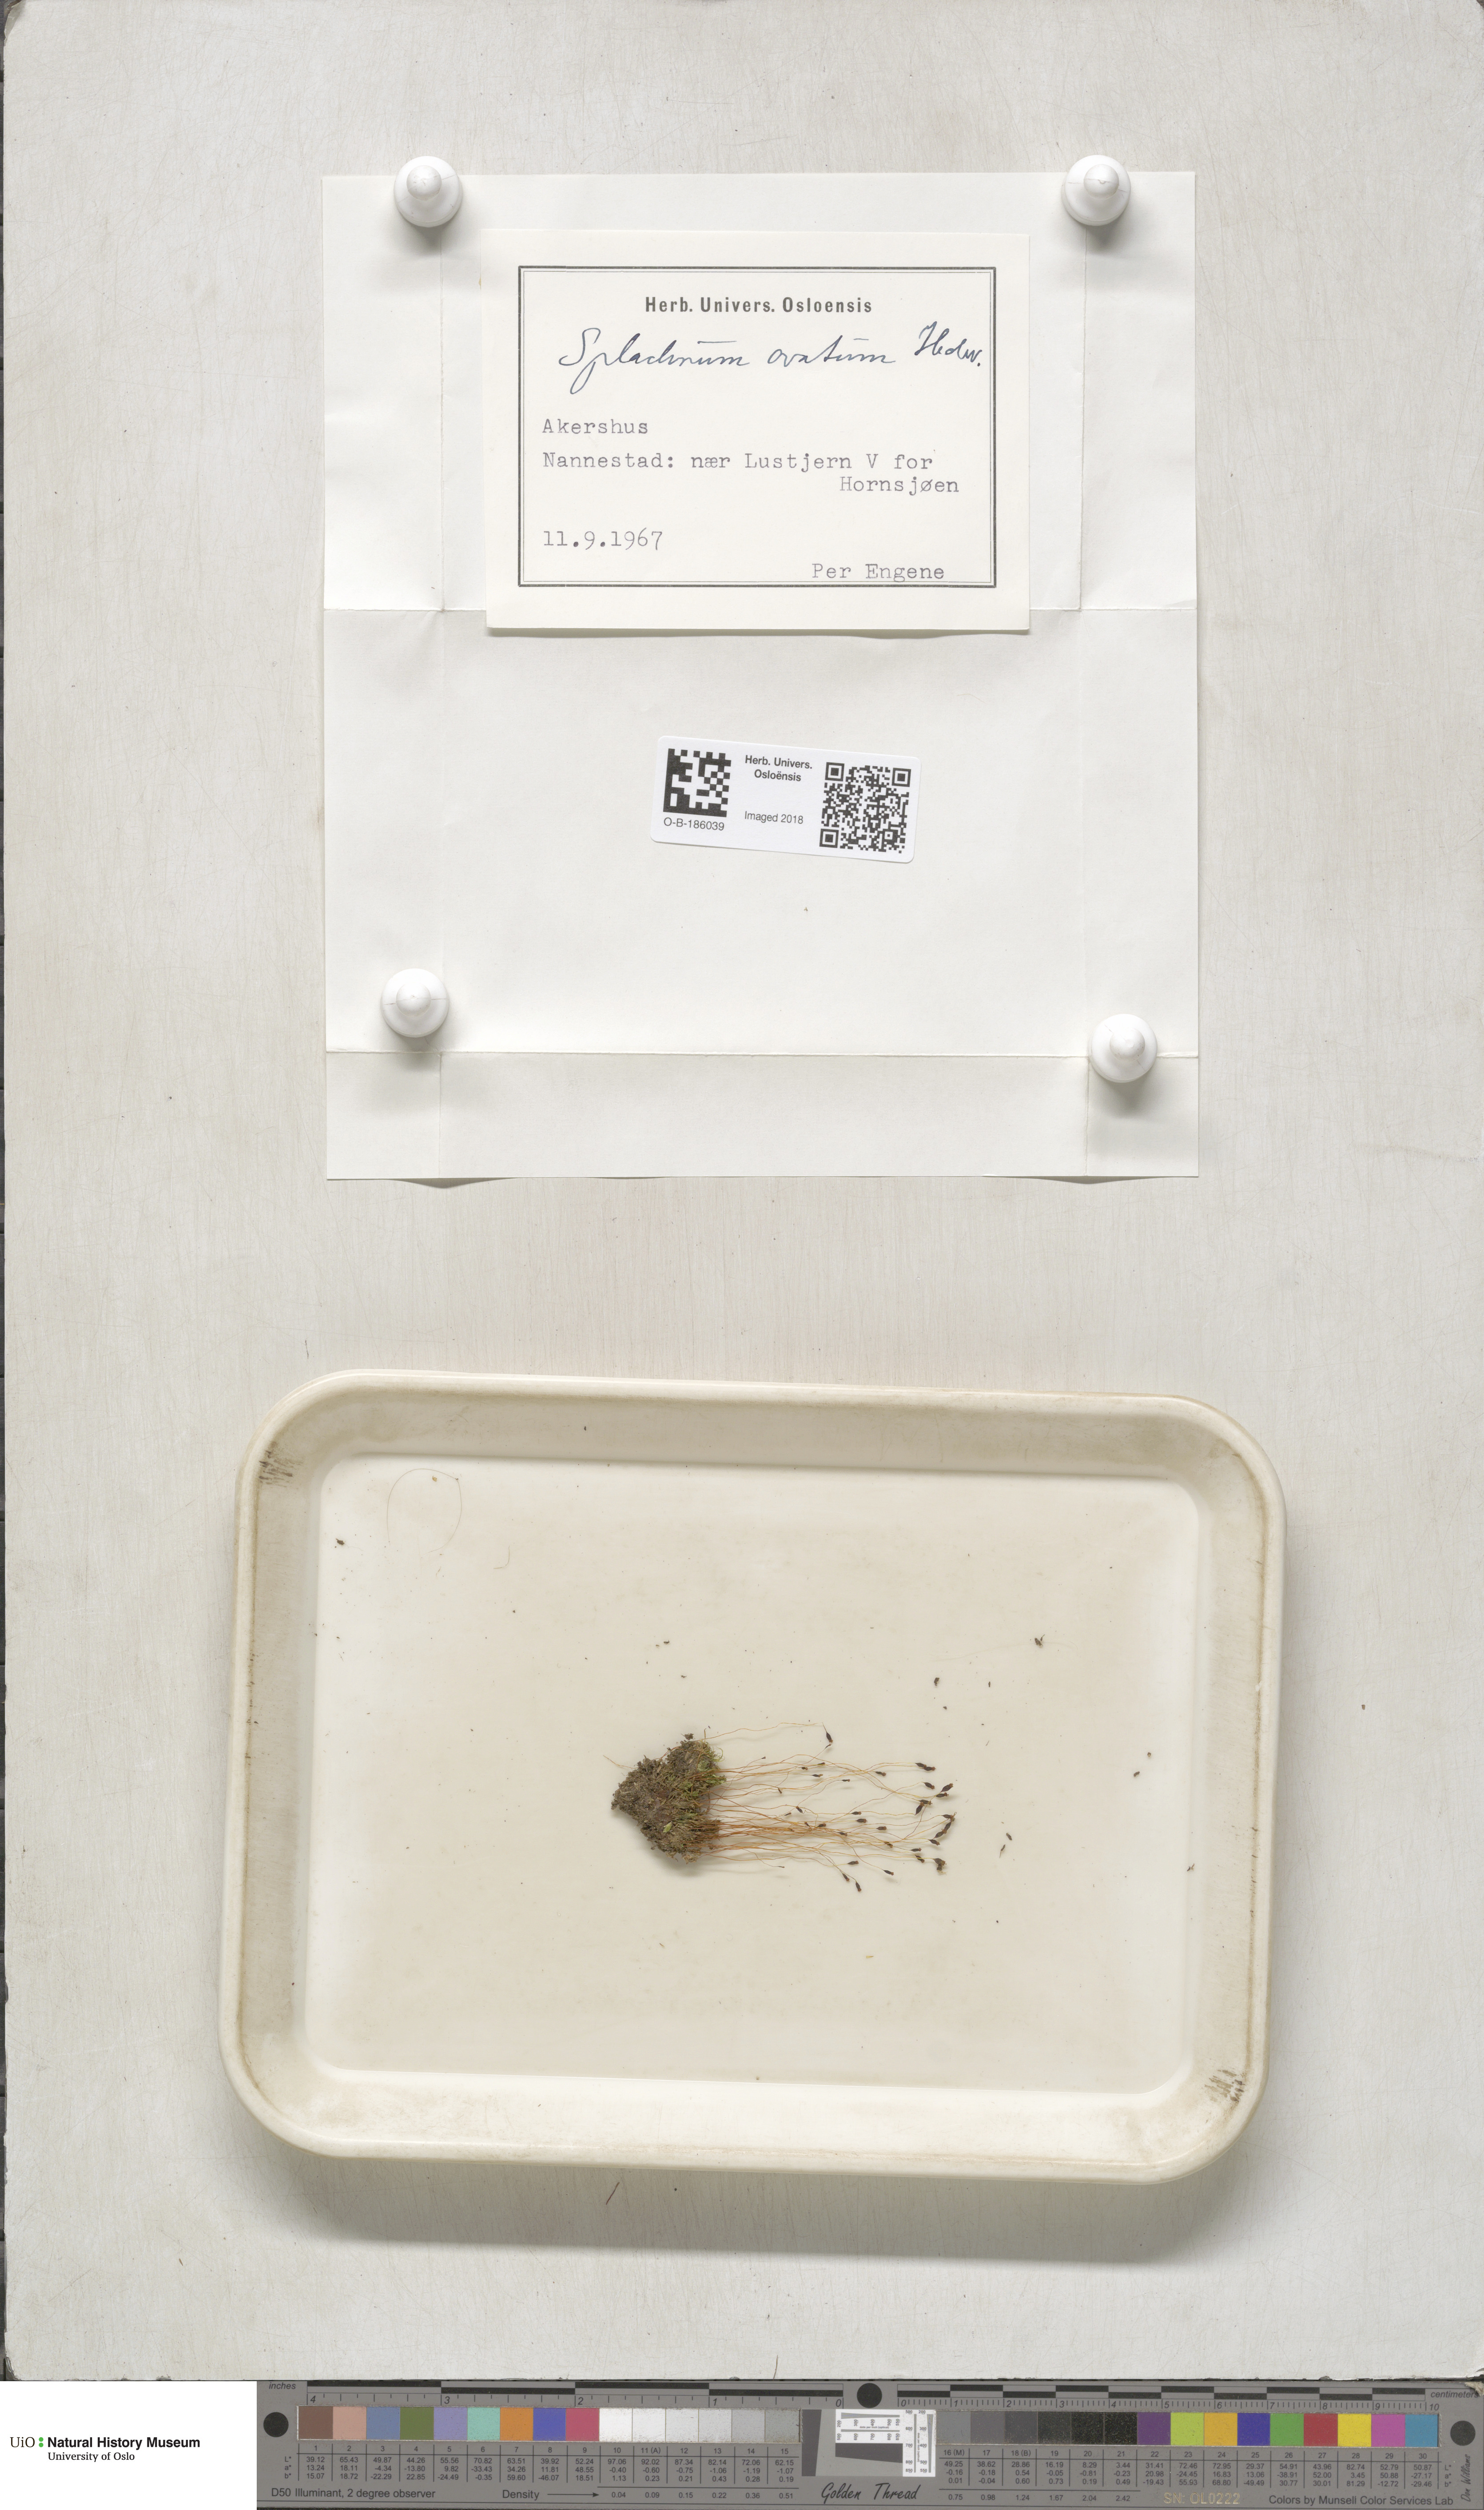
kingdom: Plantae
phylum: Bryophyta
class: Bryopsida
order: Splachnales
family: Splachnaceae
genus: Splachnum
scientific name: Splachnum sphaericum
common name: Round-fruited dung moss
